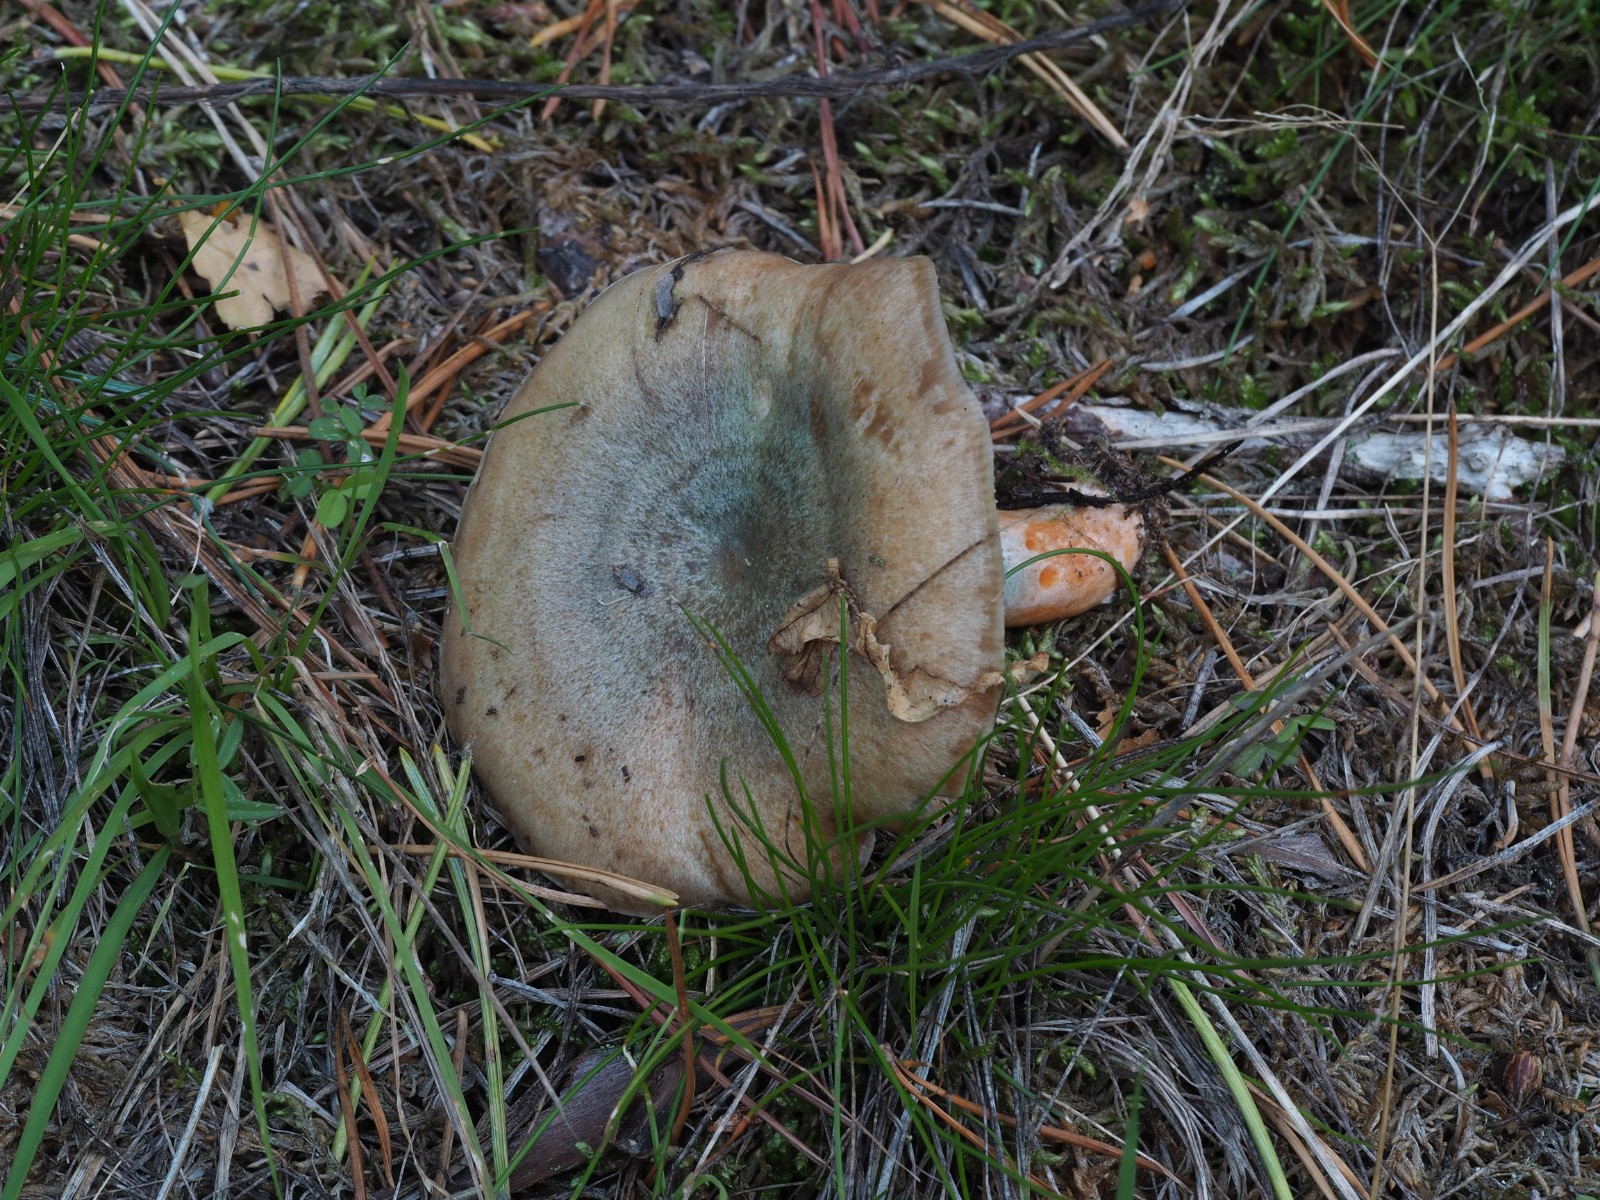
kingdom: Fungi
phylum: Basidiomycota
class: Agaricomycetes
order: Russulales
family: Russulaceae
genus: Lactarius
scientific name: Lactarius deliciosus
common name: velsmagende mælkehat
